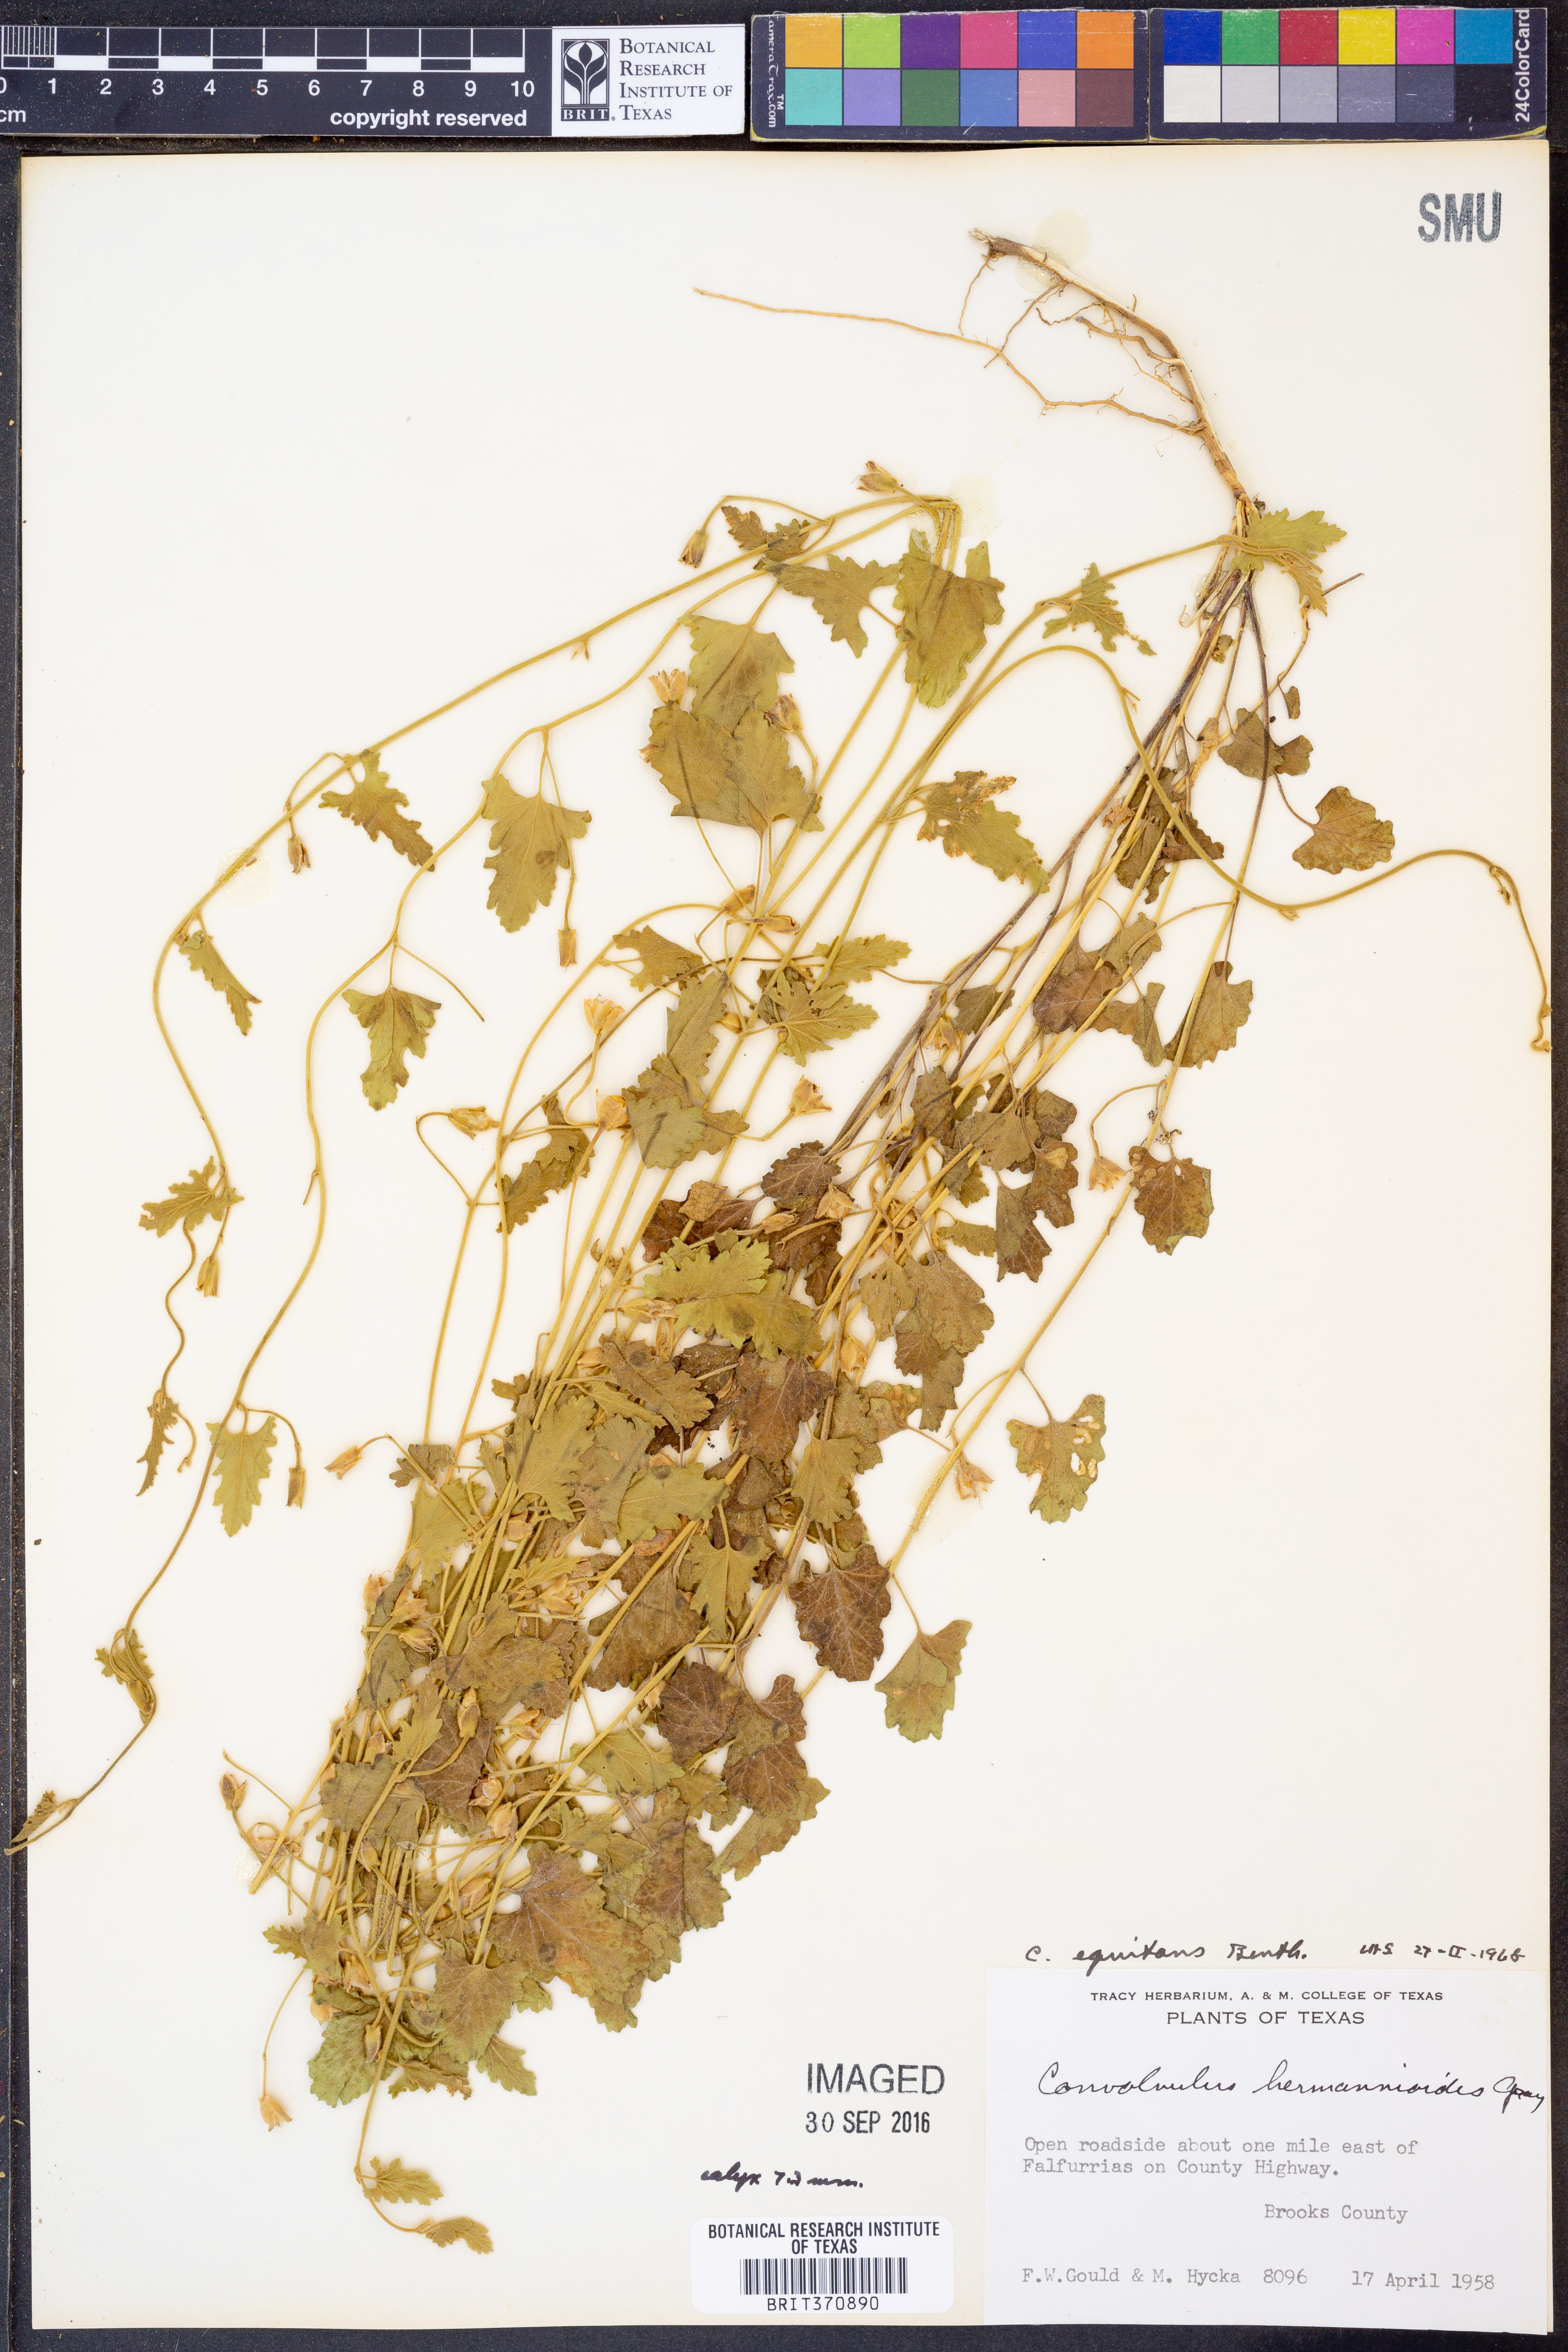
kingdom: Plantae
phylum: Tracheophyta
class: Magnoliopsida
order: Solanales
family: Convolvulaceae
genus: Convolvulus
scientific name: Convolvulus equitans
